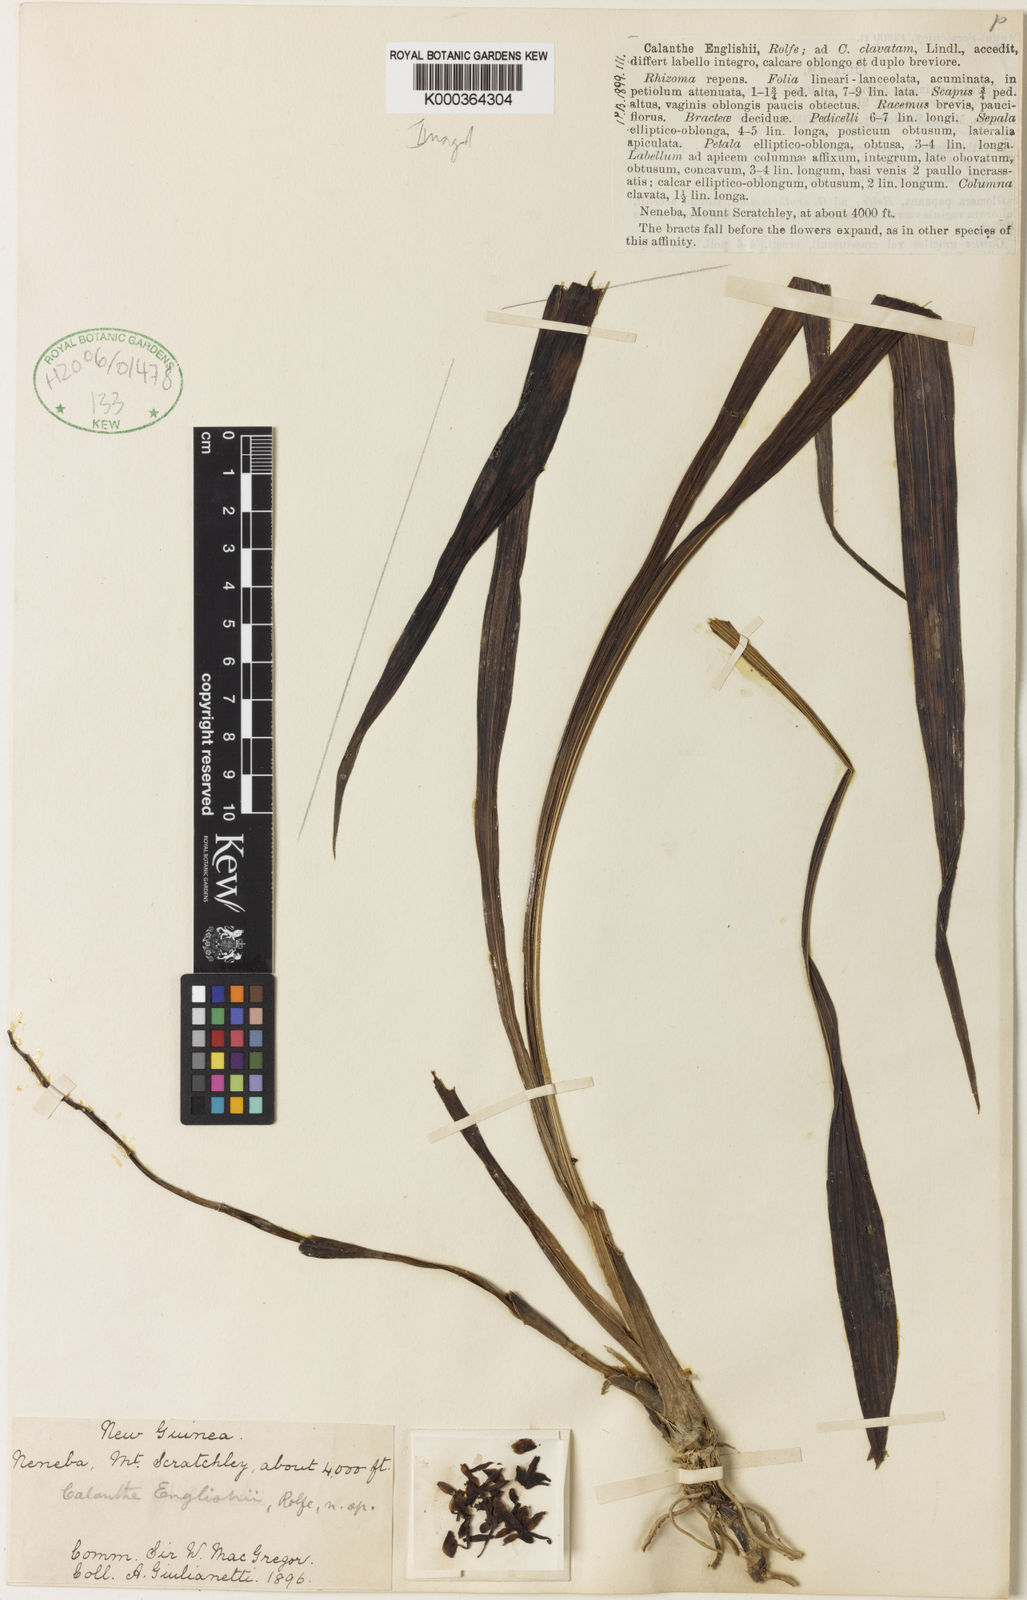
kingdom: Plantae
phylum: Tracheophyta
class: Liliopsida
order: Asparagales
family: Orchidaceae
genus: Calanthe
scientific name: Calanthe ventilabrum
